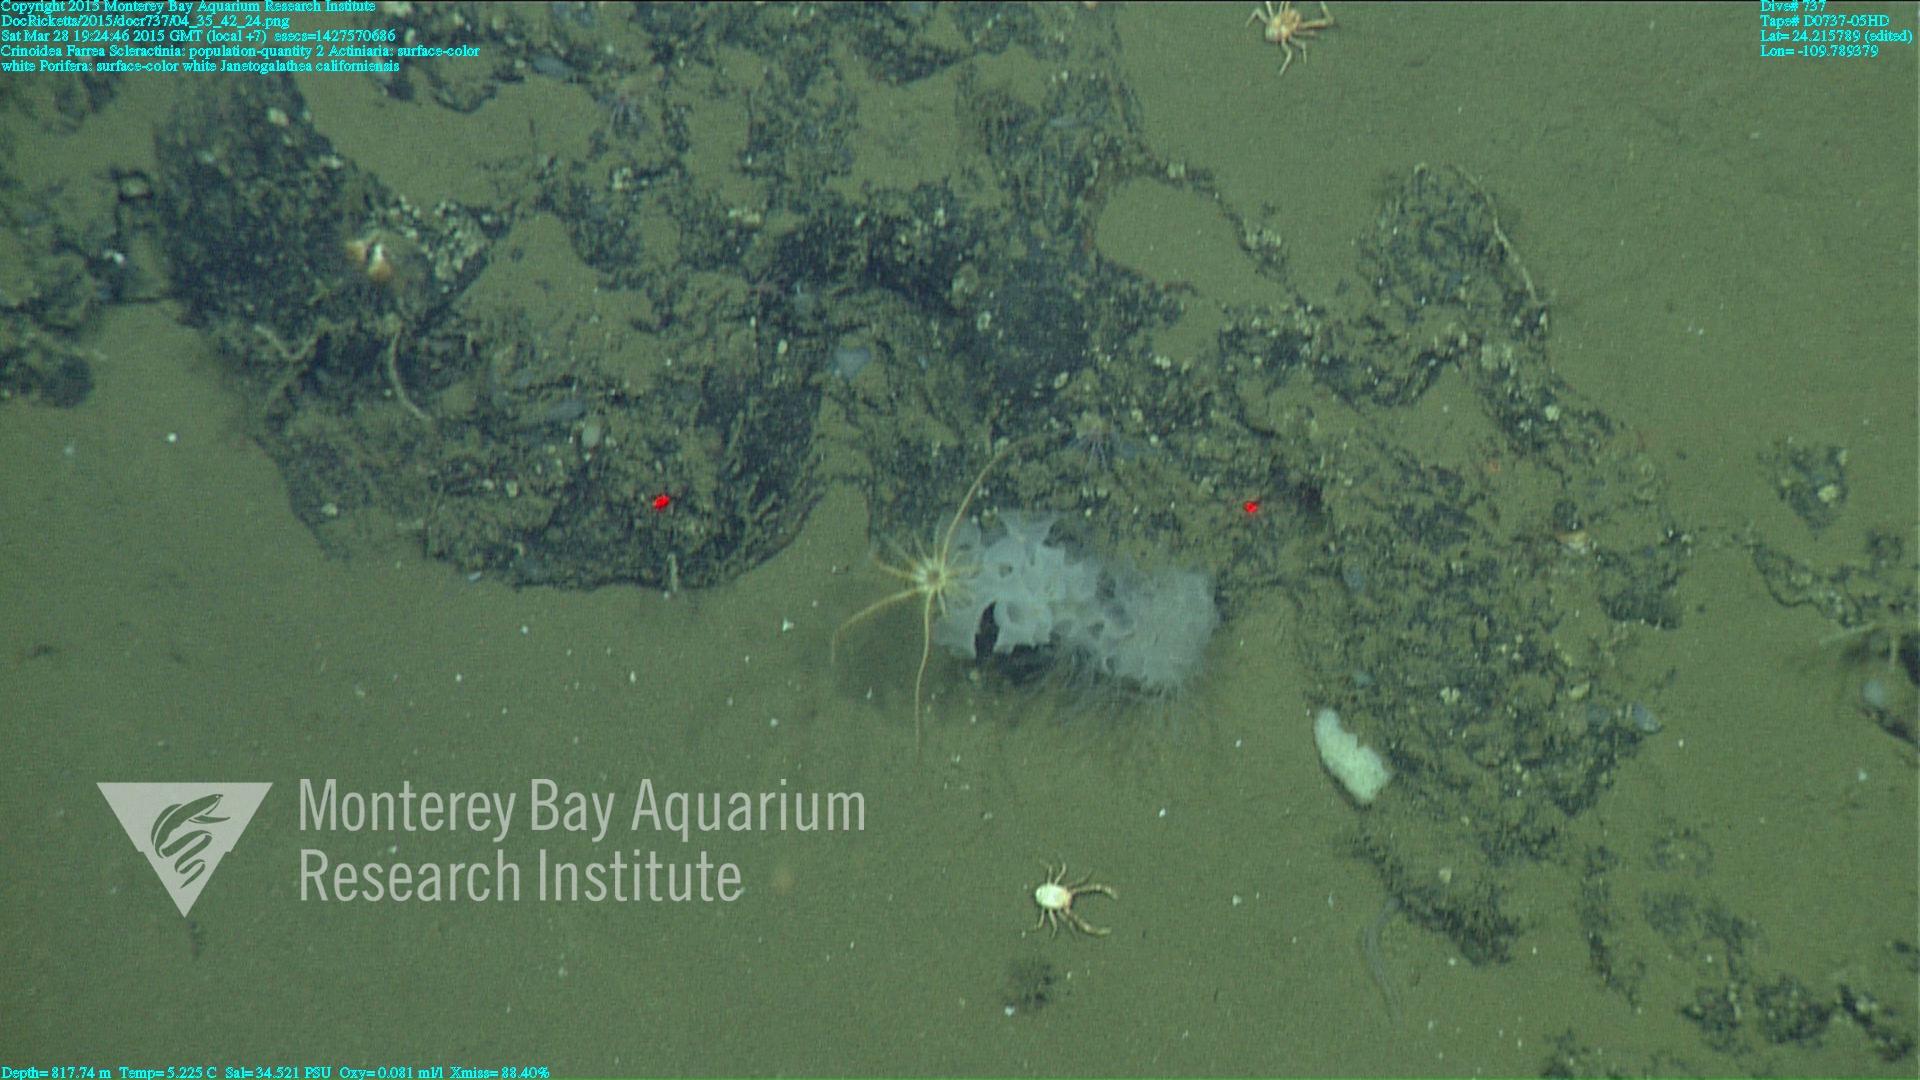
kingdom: Animalia
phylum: Cnidaria
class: Anthozoa
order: Scleractinia
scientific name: Scleractinia
